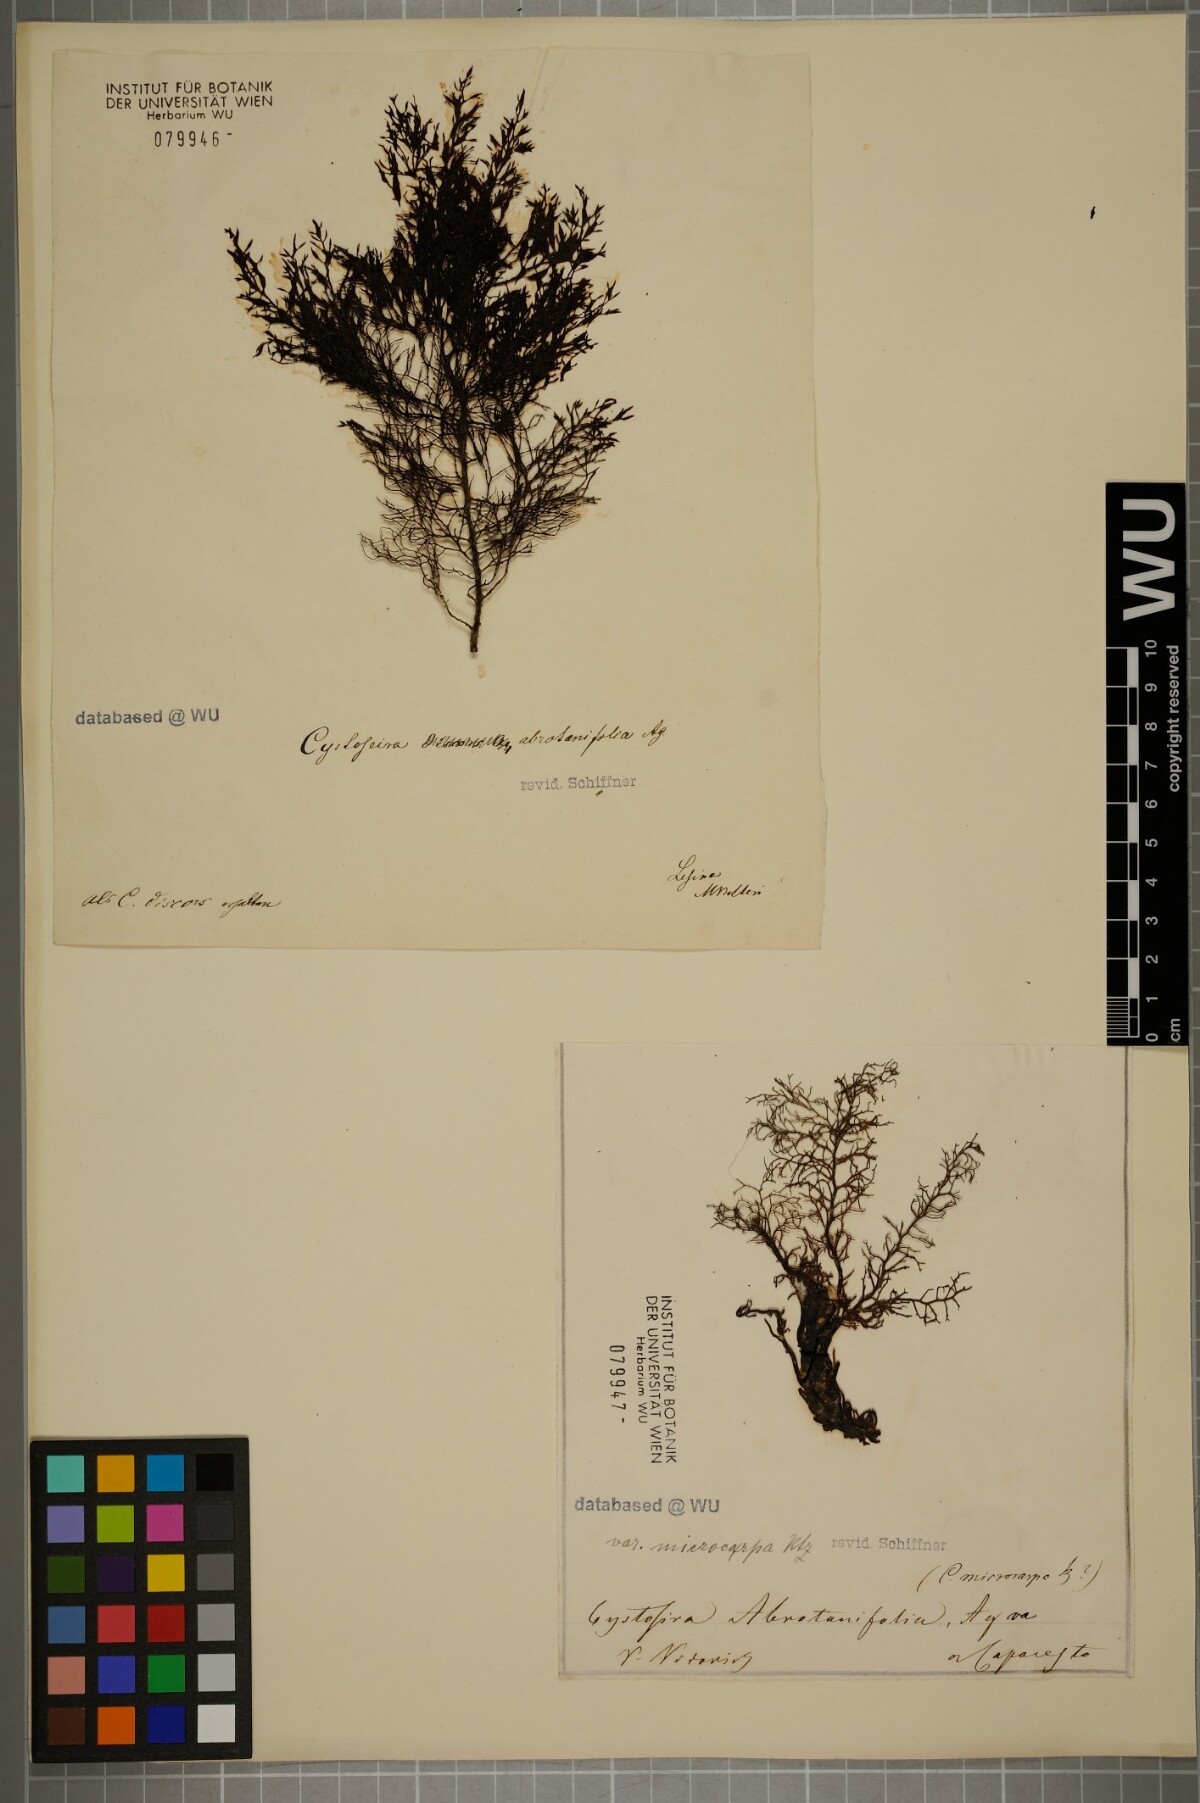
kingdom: Chromista
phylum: Ochrophyta
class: Phaeophyceae
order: Fucales
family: Sargassaceae
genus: Cystoseira
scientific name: Cystoseira foeniculacea
